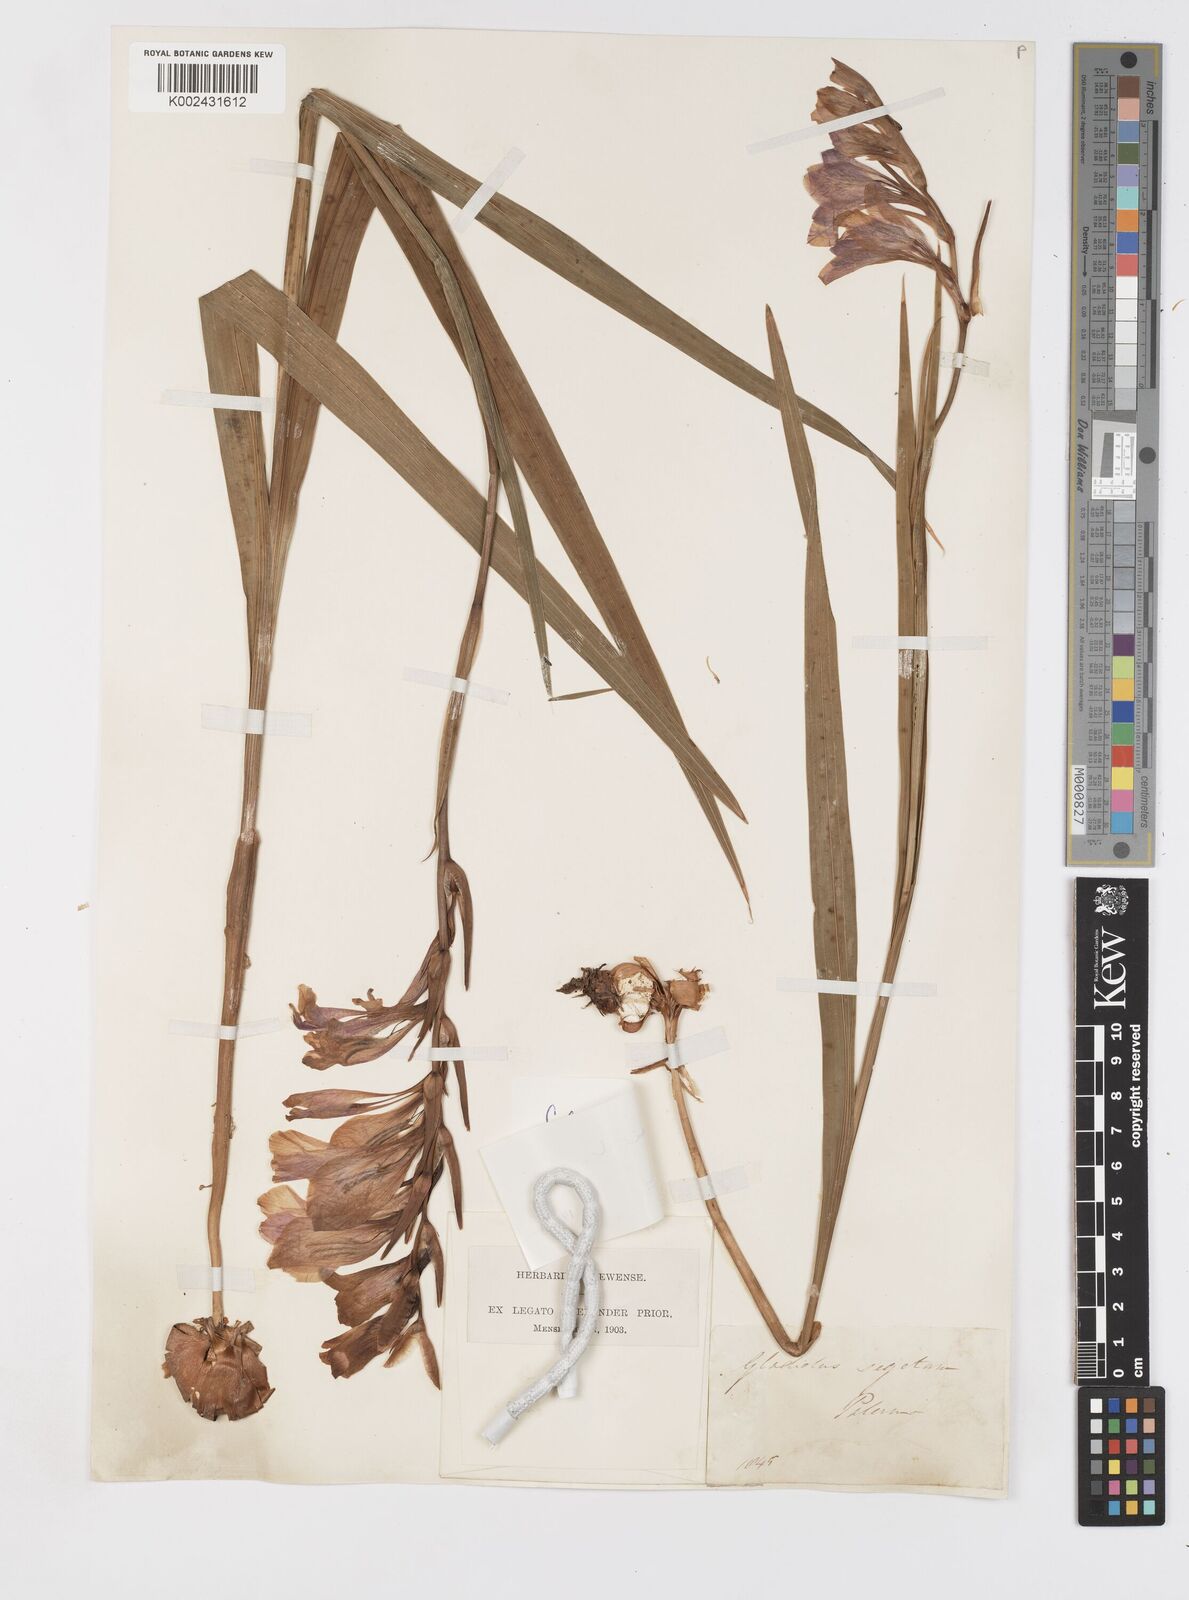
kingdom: Plantae
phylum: Tracheophyta
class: Liliopsida
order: Asparagales
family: Iridaceae
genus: Gladiolus
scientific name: Gladiolus communis
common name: Eastern gladiolus
